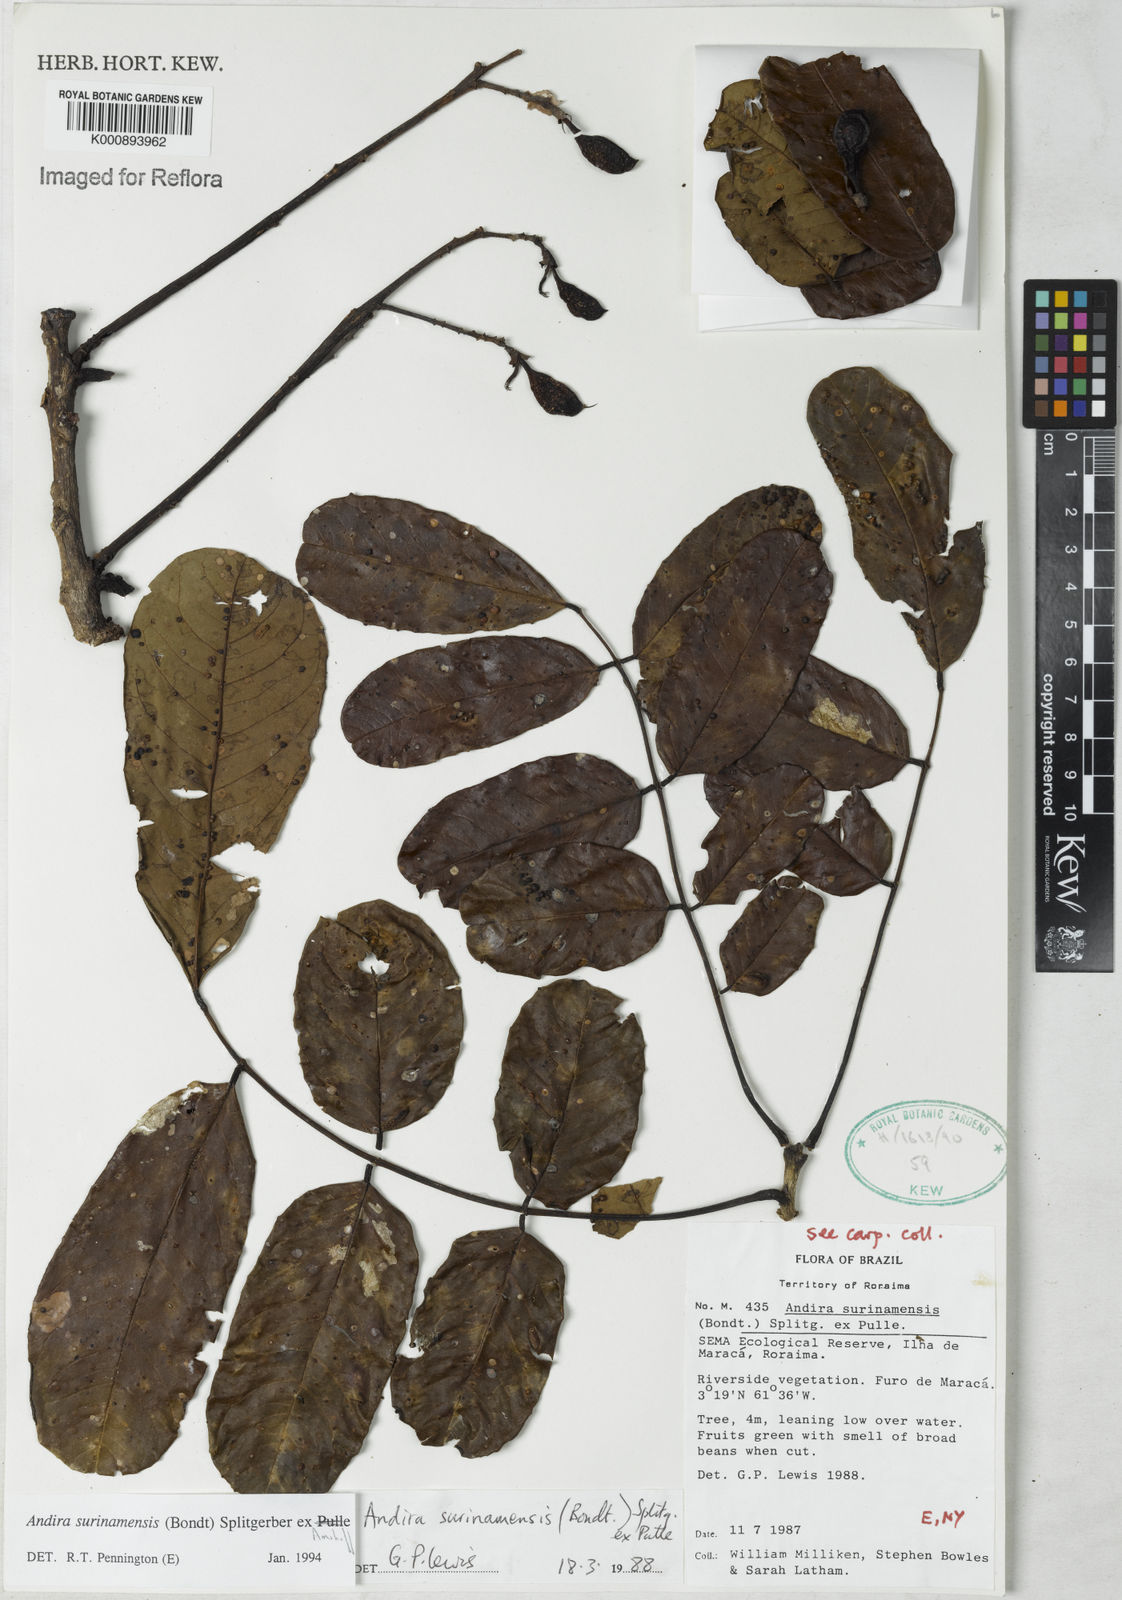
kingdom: Plantae
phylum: Tracheophyta
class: Magnoliopsida
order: Fabales
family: Fabaceae
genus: Andira
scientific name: Andira
